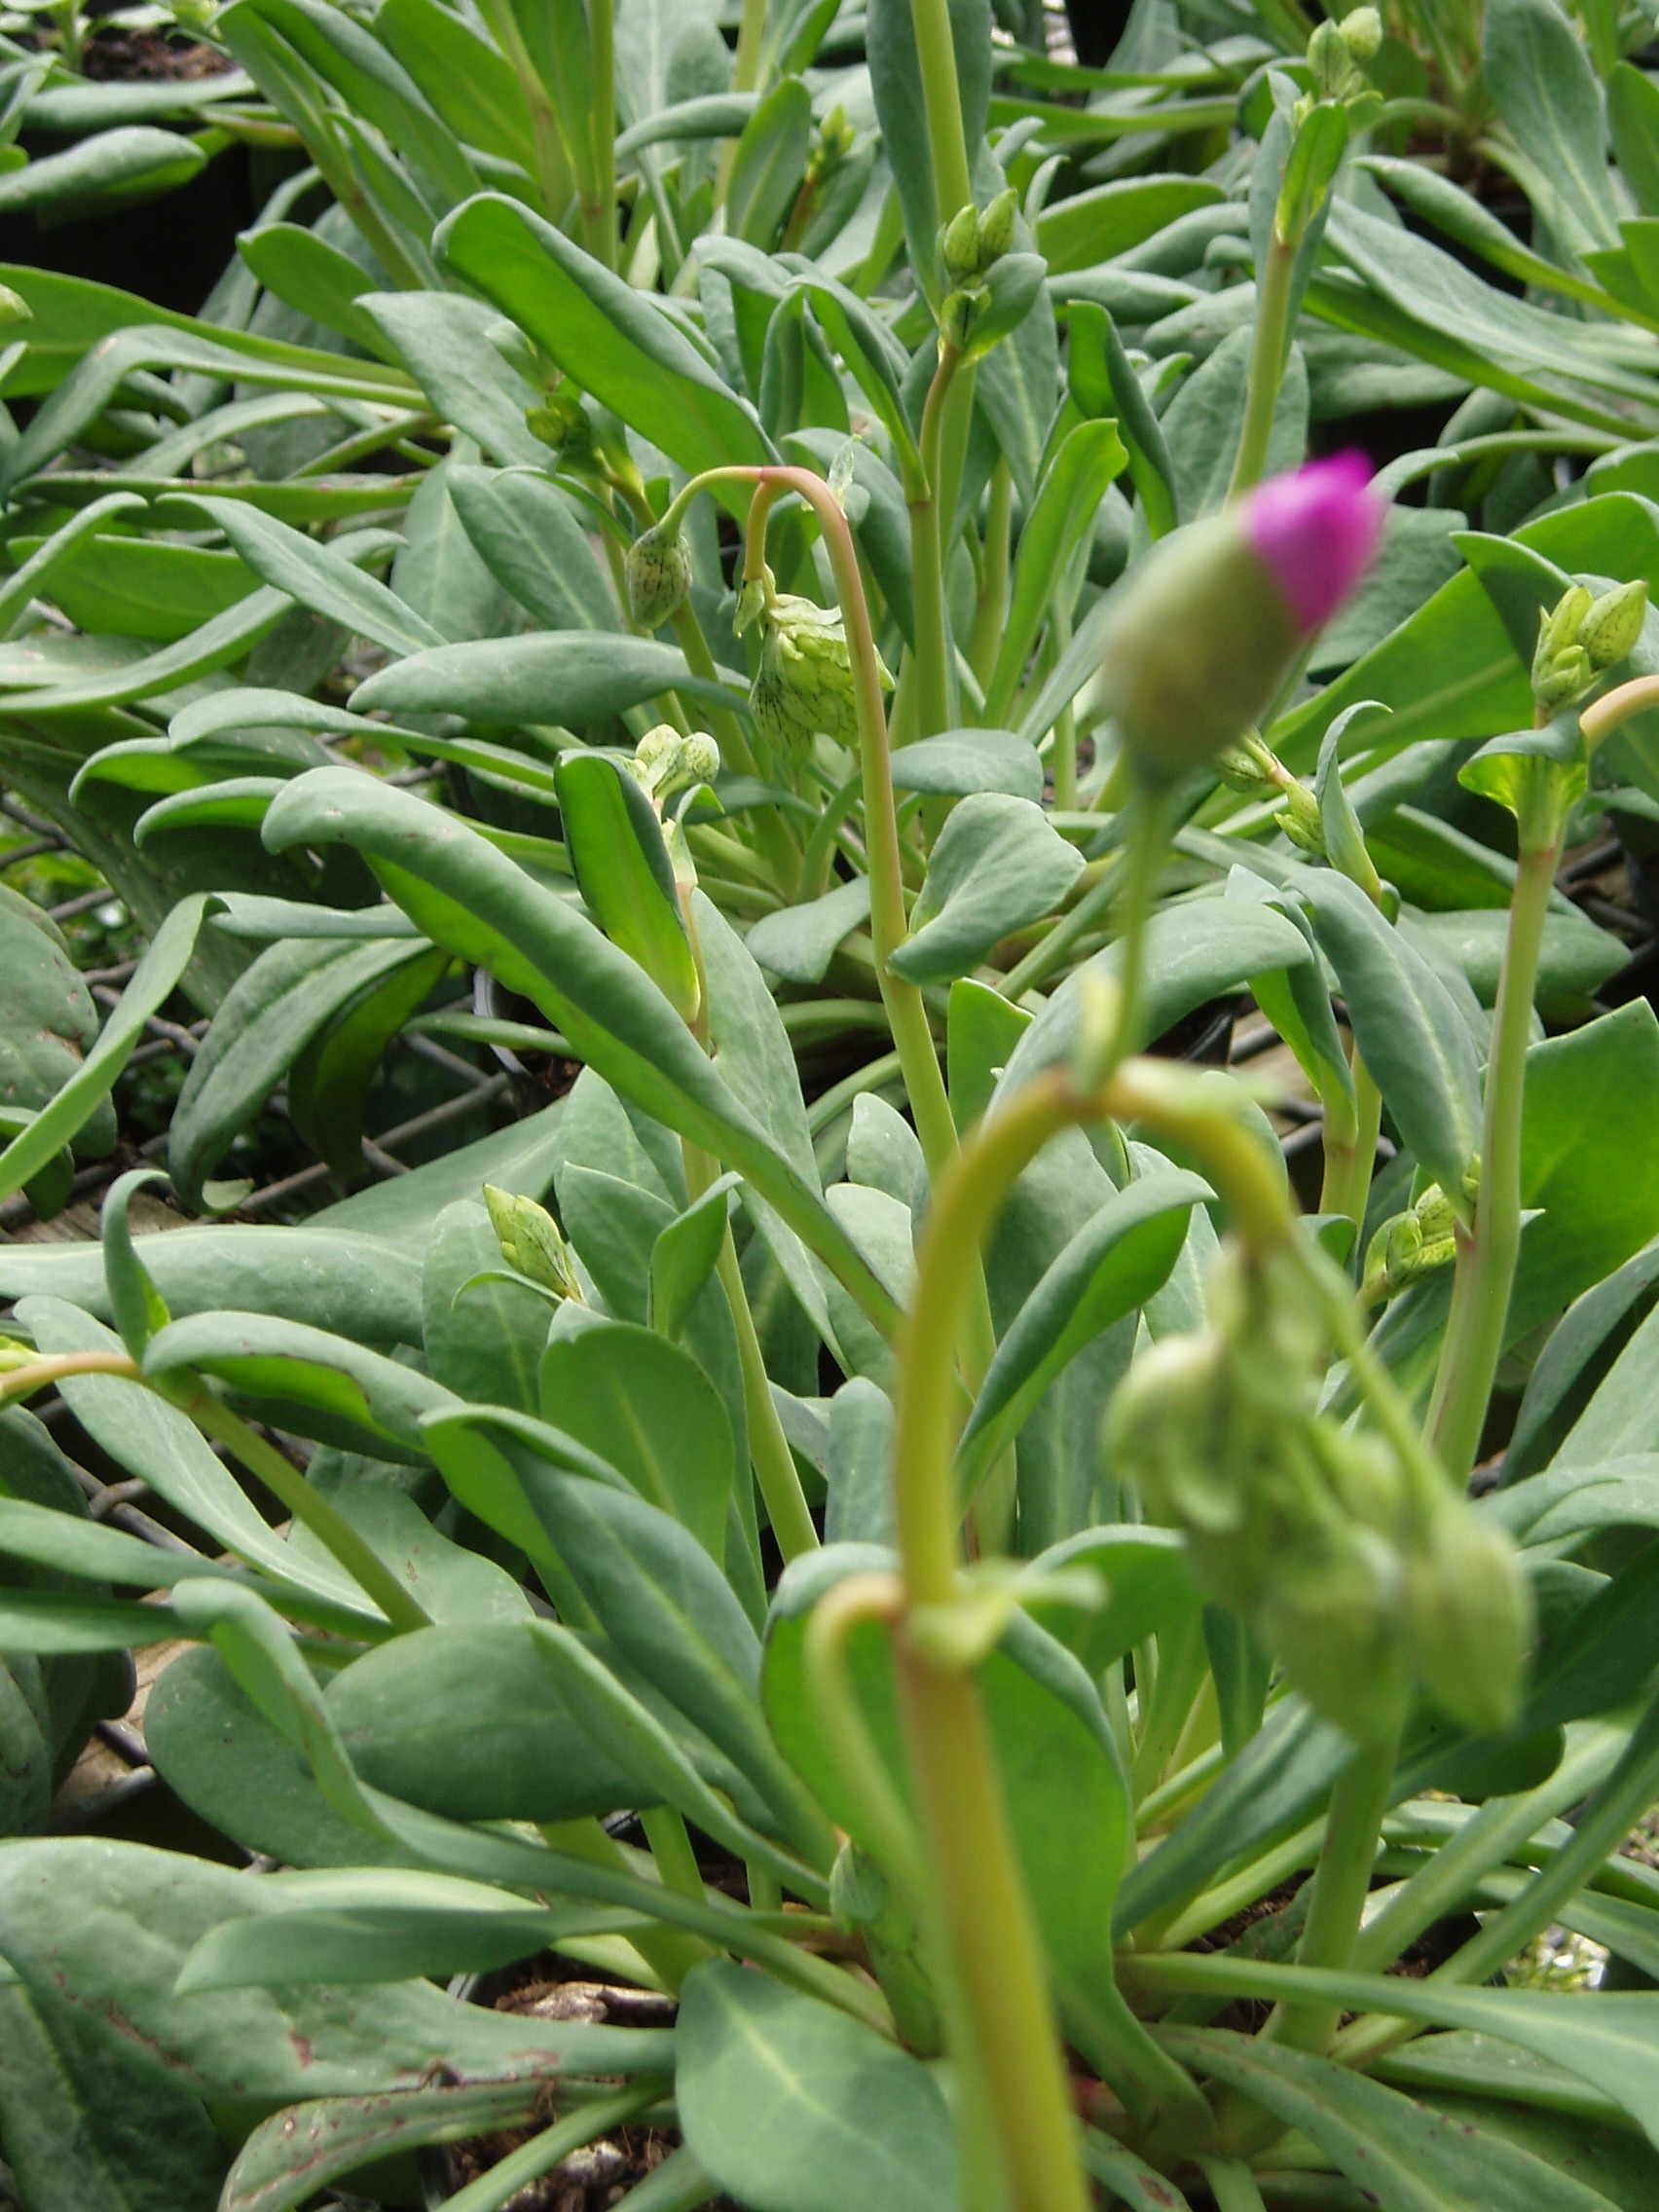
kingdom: Plantae
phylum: Tracheophyta
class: Magnoliopsida
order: Caryophyllales
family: Montiaceae
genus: Cistanthe
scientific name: Cistanthe grandiflora
